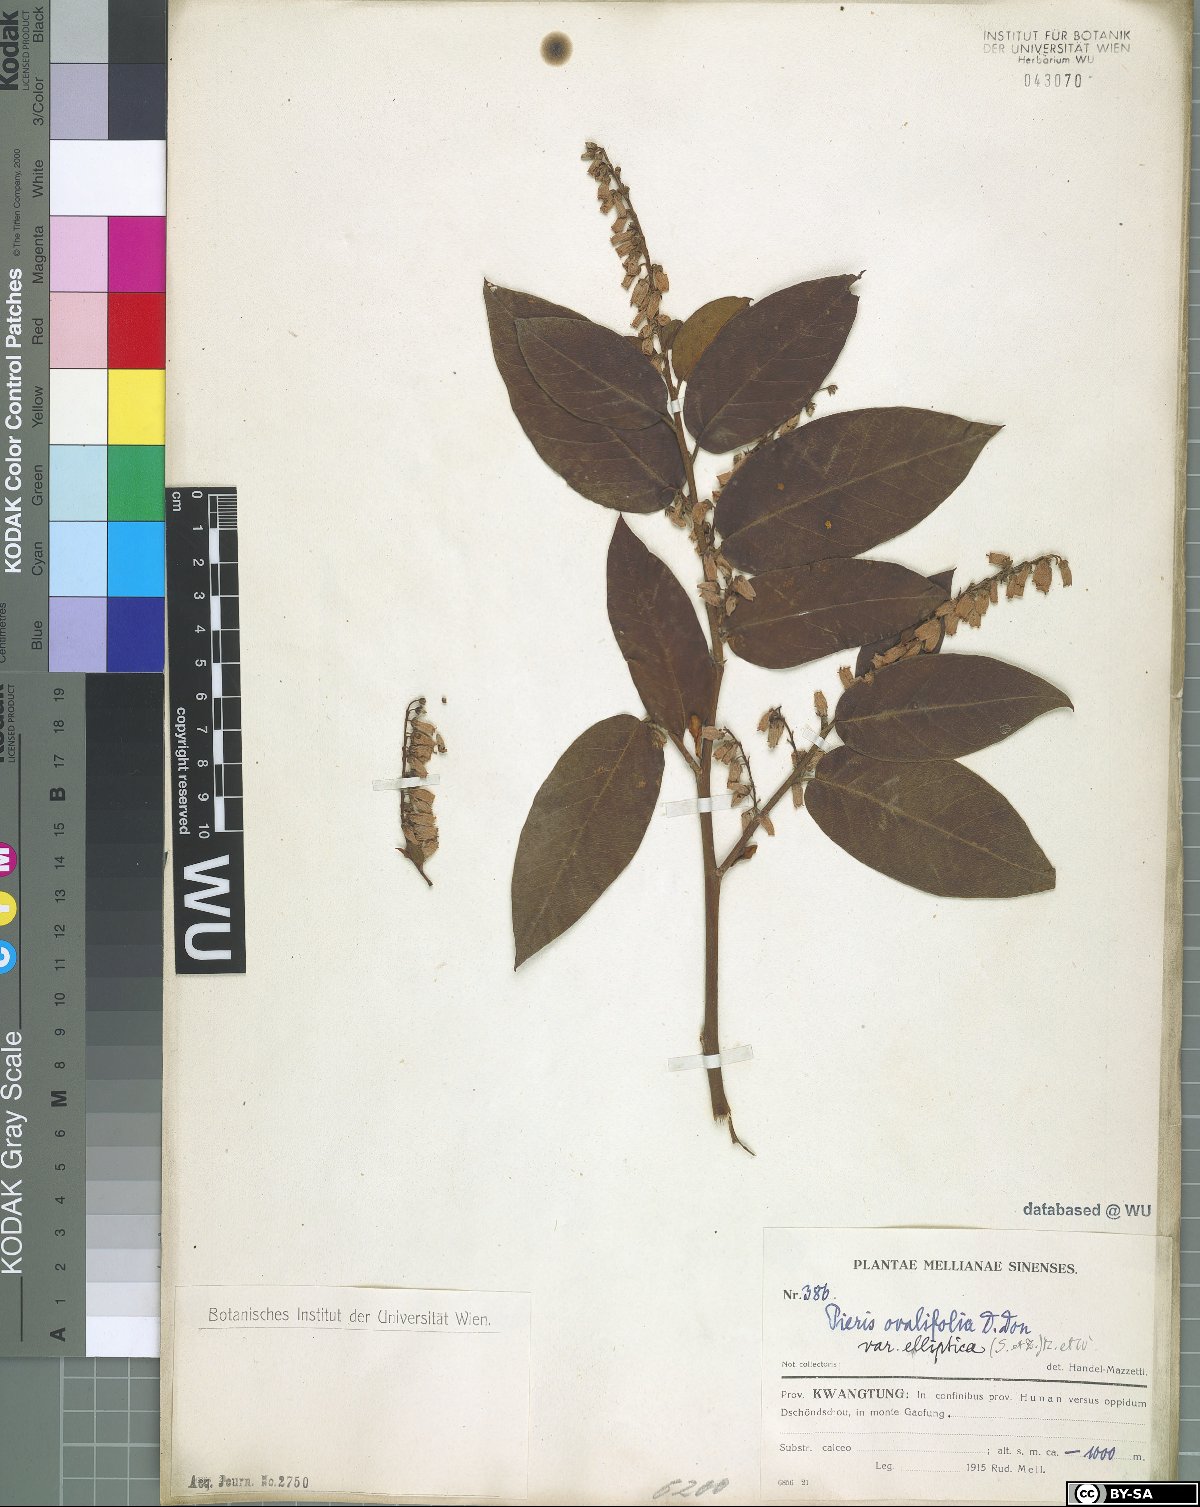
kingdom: Plantae
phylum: Tracheophyta
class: Magnoliopsida
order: Ericales
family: Ericaceae
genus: Lyonia
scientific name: Lyonia ovalifolia
